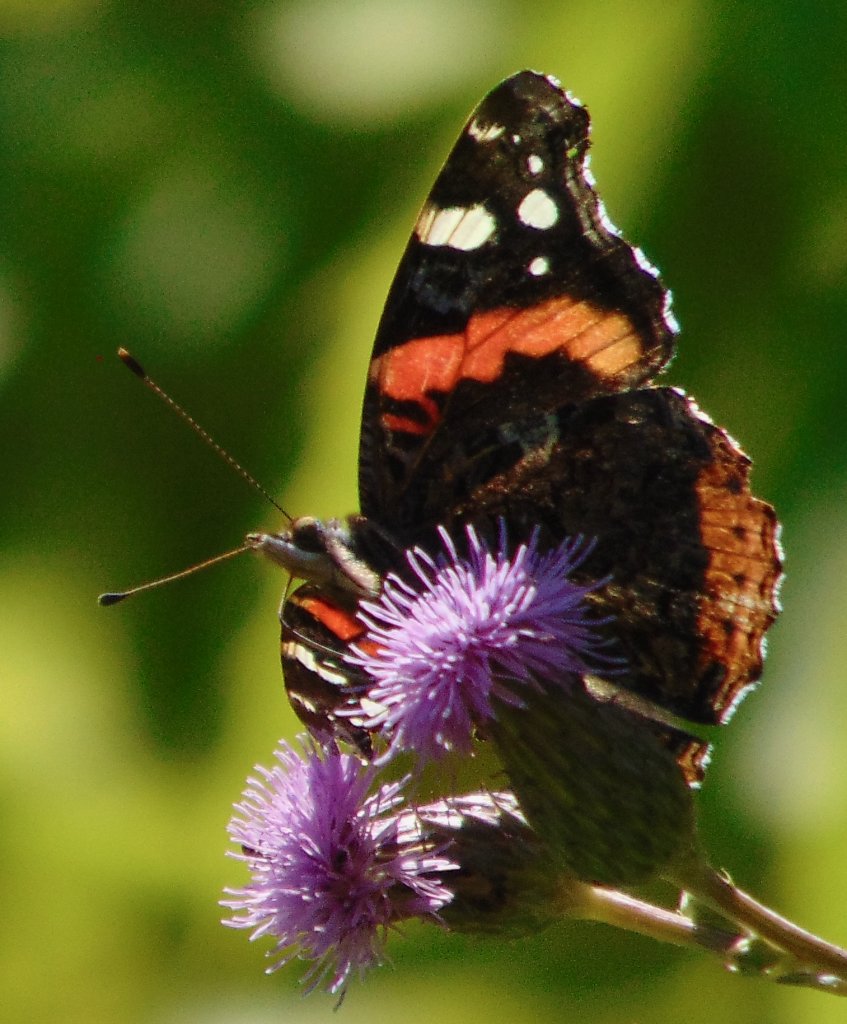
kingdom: Animalia
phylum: Arthropoda
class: Insecta
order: Lepidoptera
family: Nymphalidae
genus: Vanessa
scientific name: Vanessa atalanta
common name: Red Admiral
